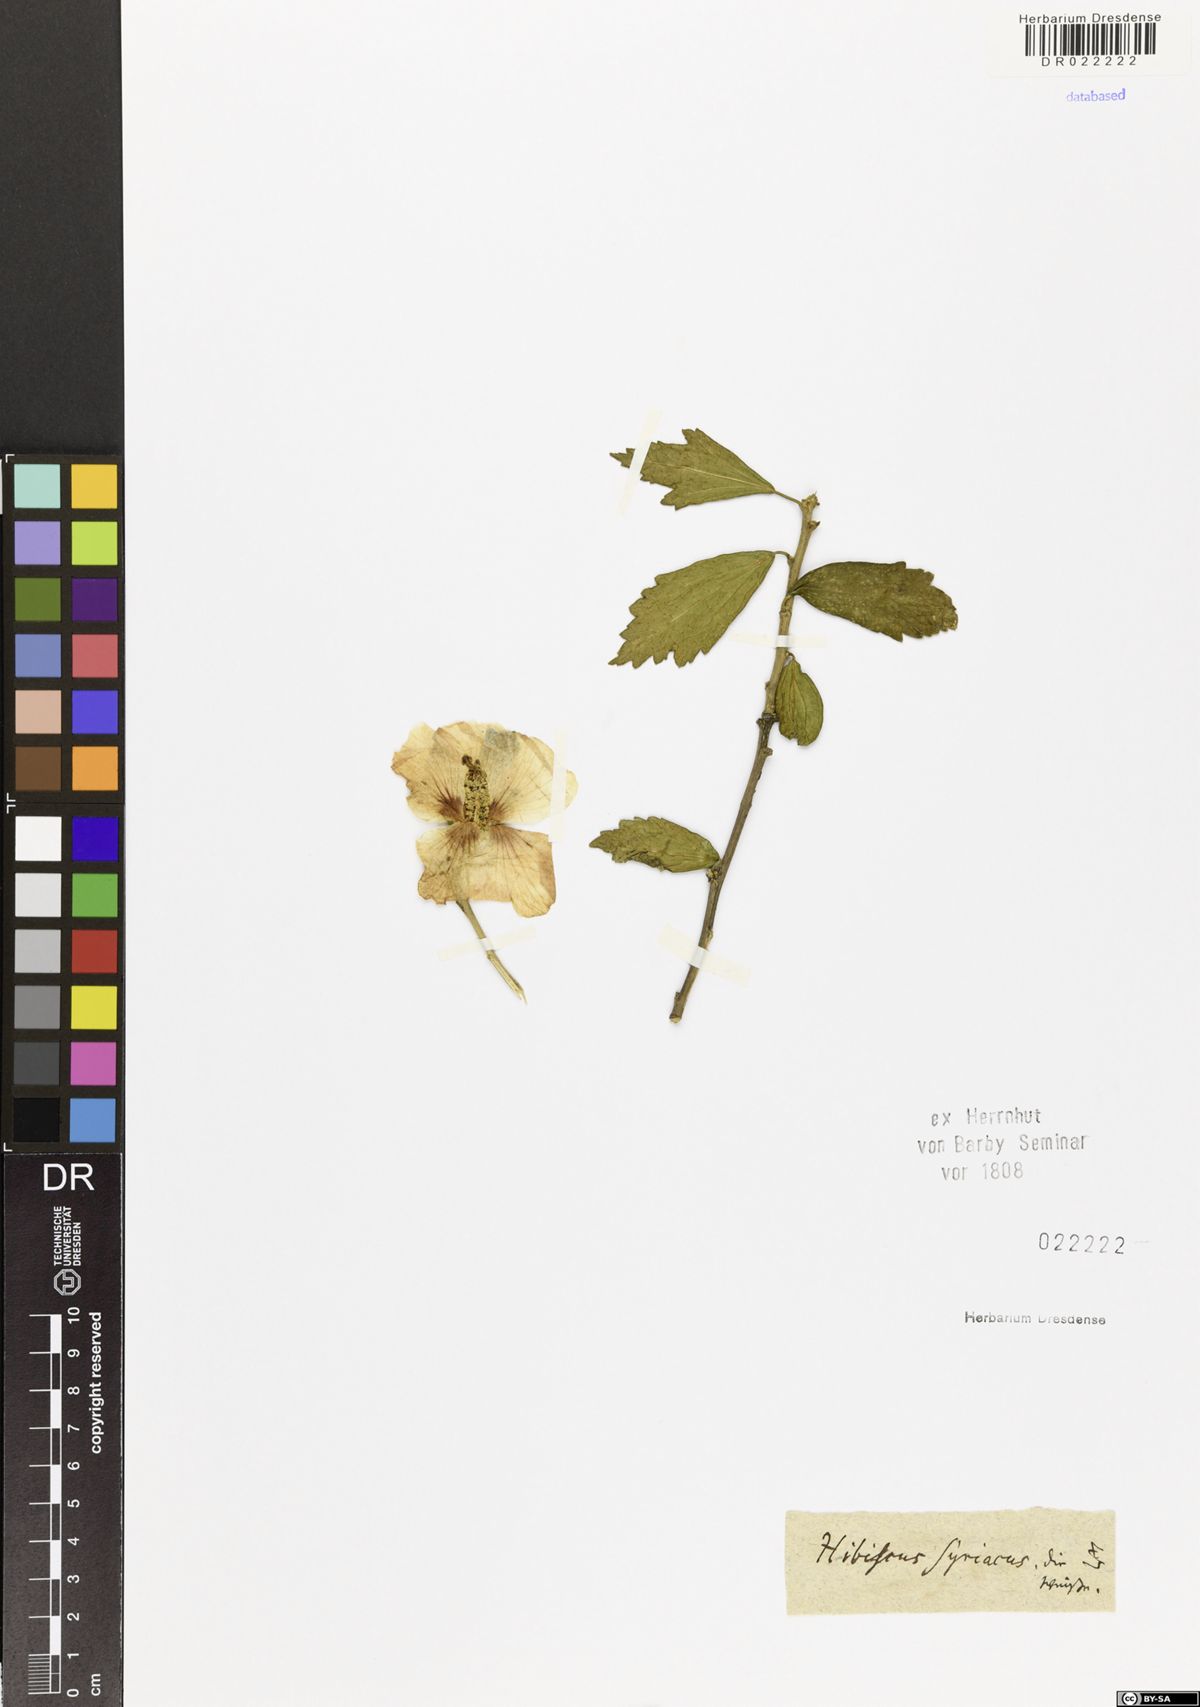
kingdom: Plantae
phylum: Tracheophyta
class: Magnoliopsida
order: Malvales
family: Malvaceae
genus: Hibiscus
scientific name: Hibiscus syriacus
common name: Syrian ketmia
